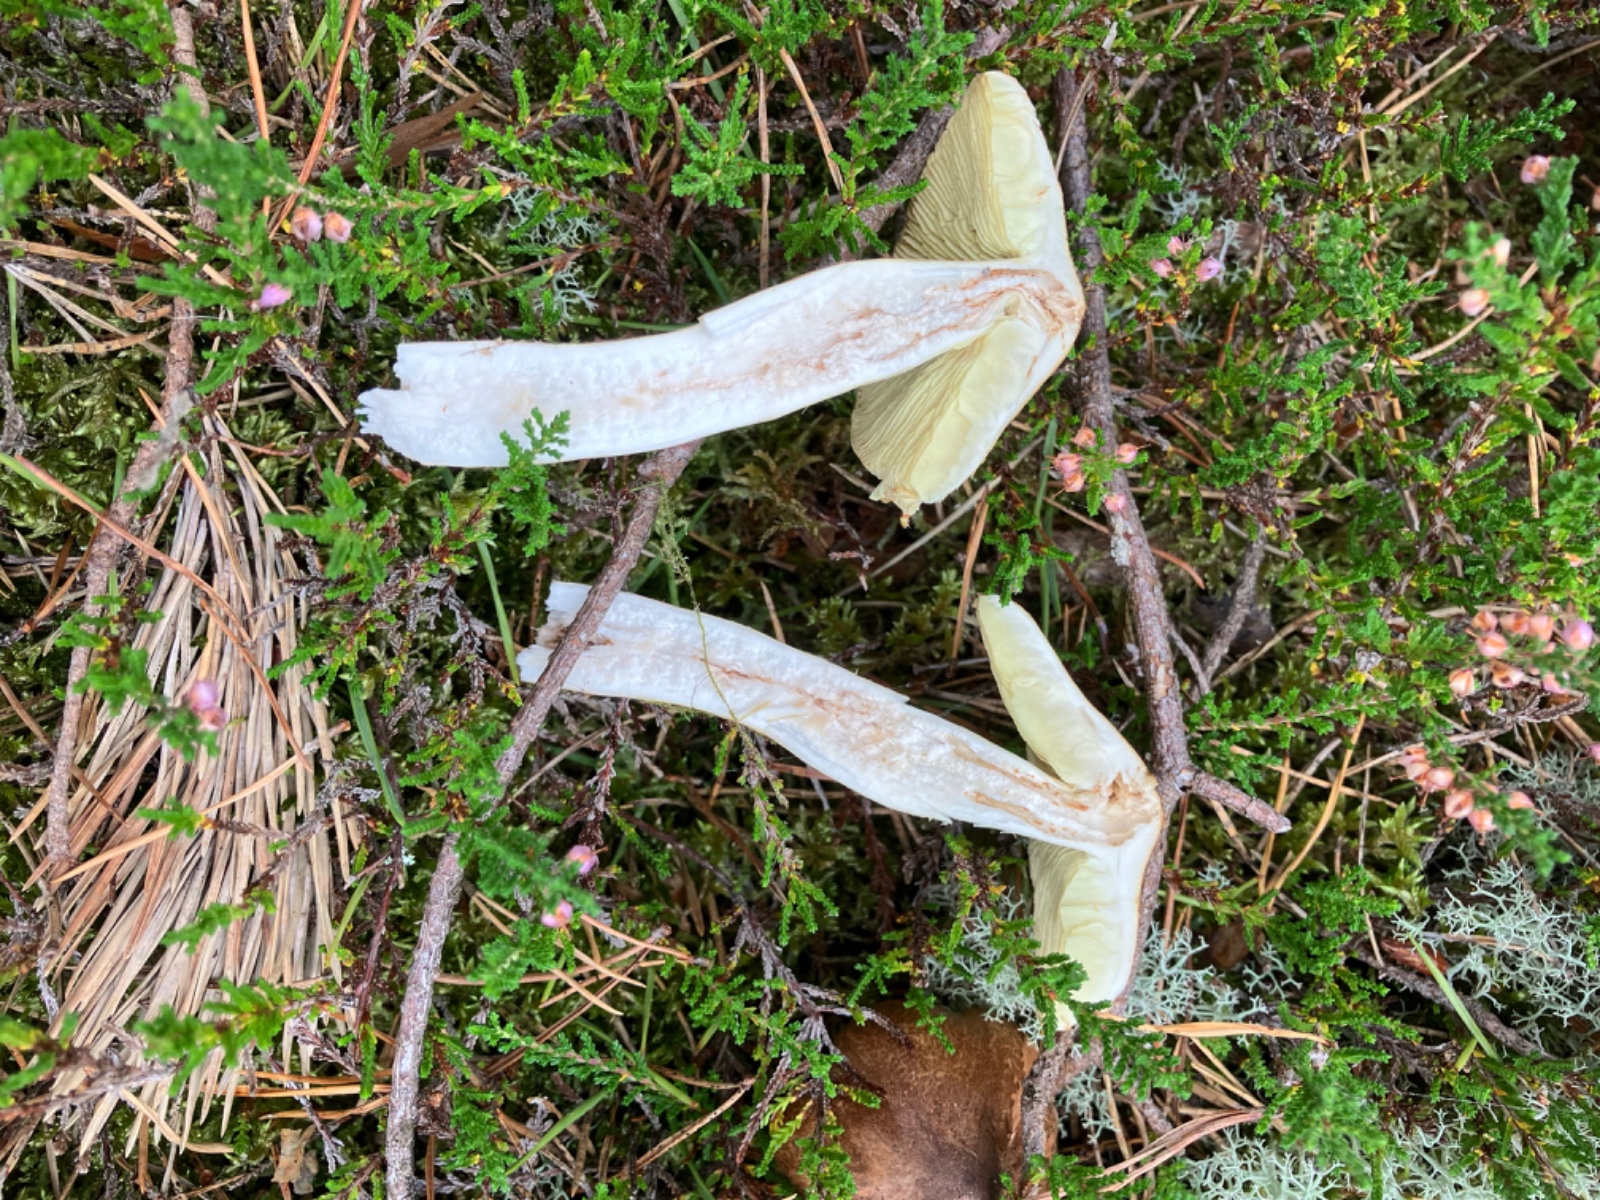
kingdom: Fungi
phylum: Basidiomycota
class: Agaricomycetes
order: Agaricales
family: Tricholomataceae
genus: Tricholoma
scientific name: Tricholoma equestre
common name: ægte ridderhat
